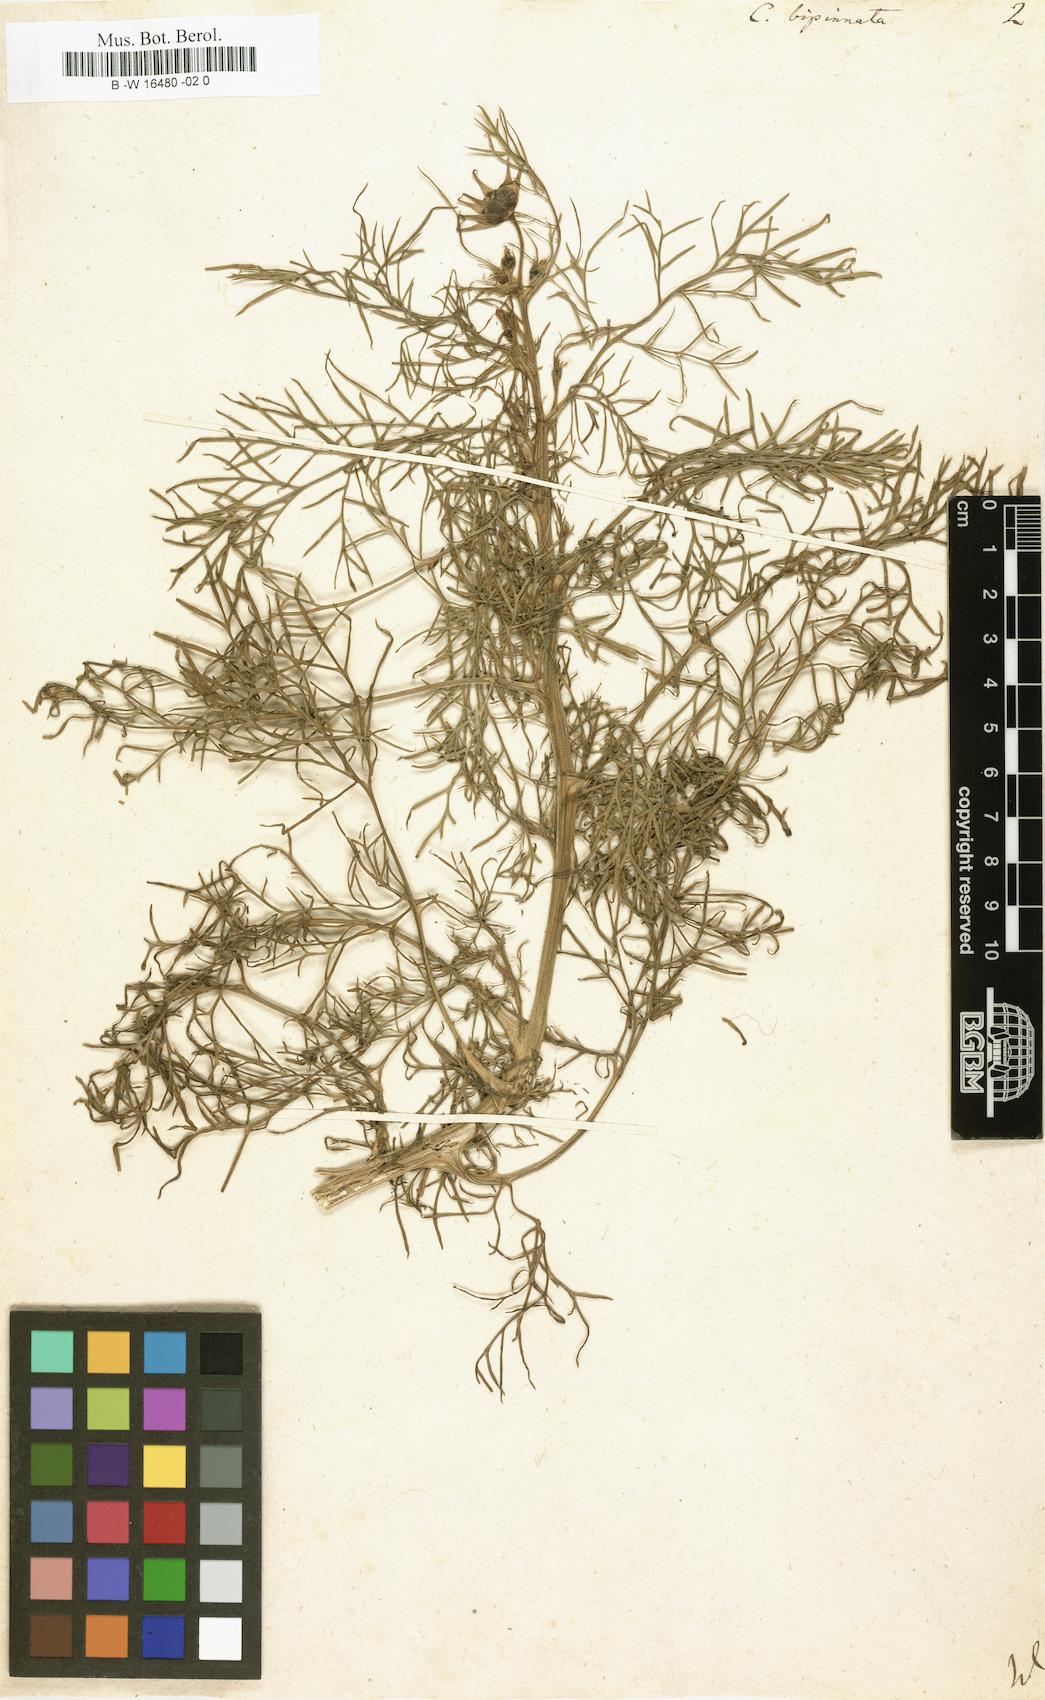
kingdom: Plantae
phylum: Tracheophyta
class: Magnoliopsida
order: Asterales
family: Asteraceae
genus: Cosmos
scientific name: Cosmos bipinnatus
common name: Garden cosmos
